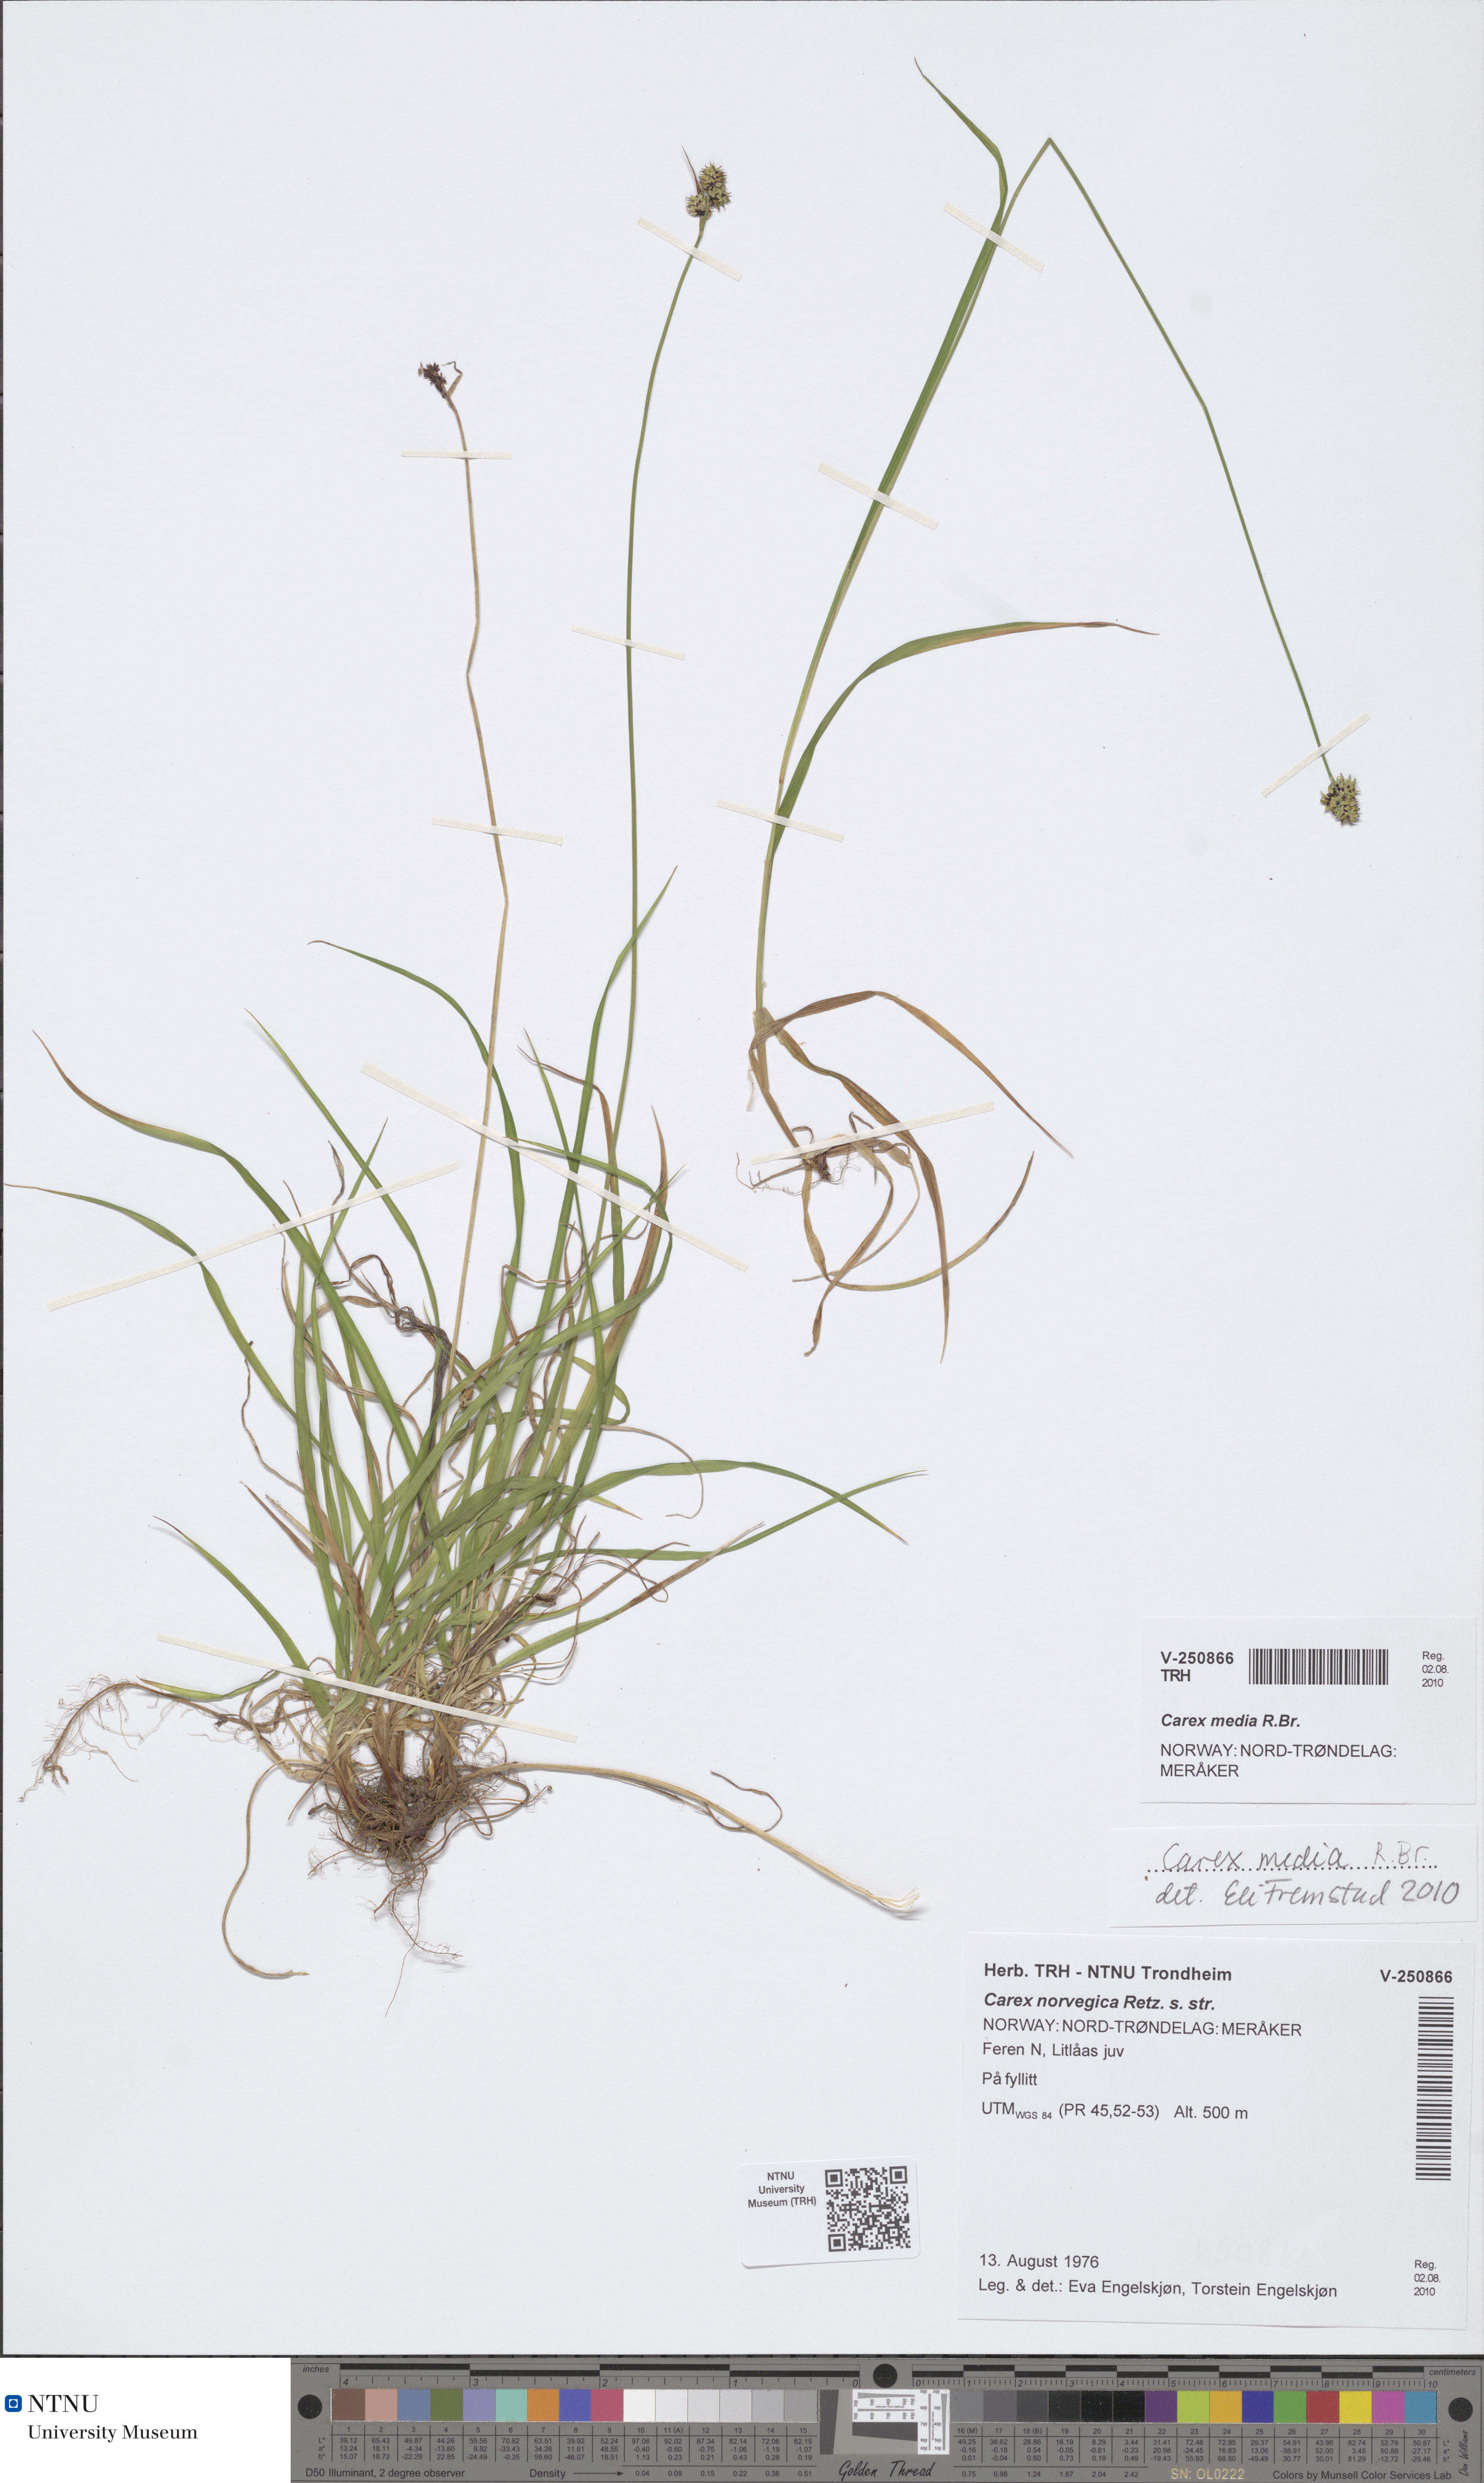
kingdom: Plantae
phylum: Tracheophyta
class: Liliopsida
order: Poales
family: Cyperaceae
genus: Carex
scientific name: Carex media
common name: Alpine sedge
